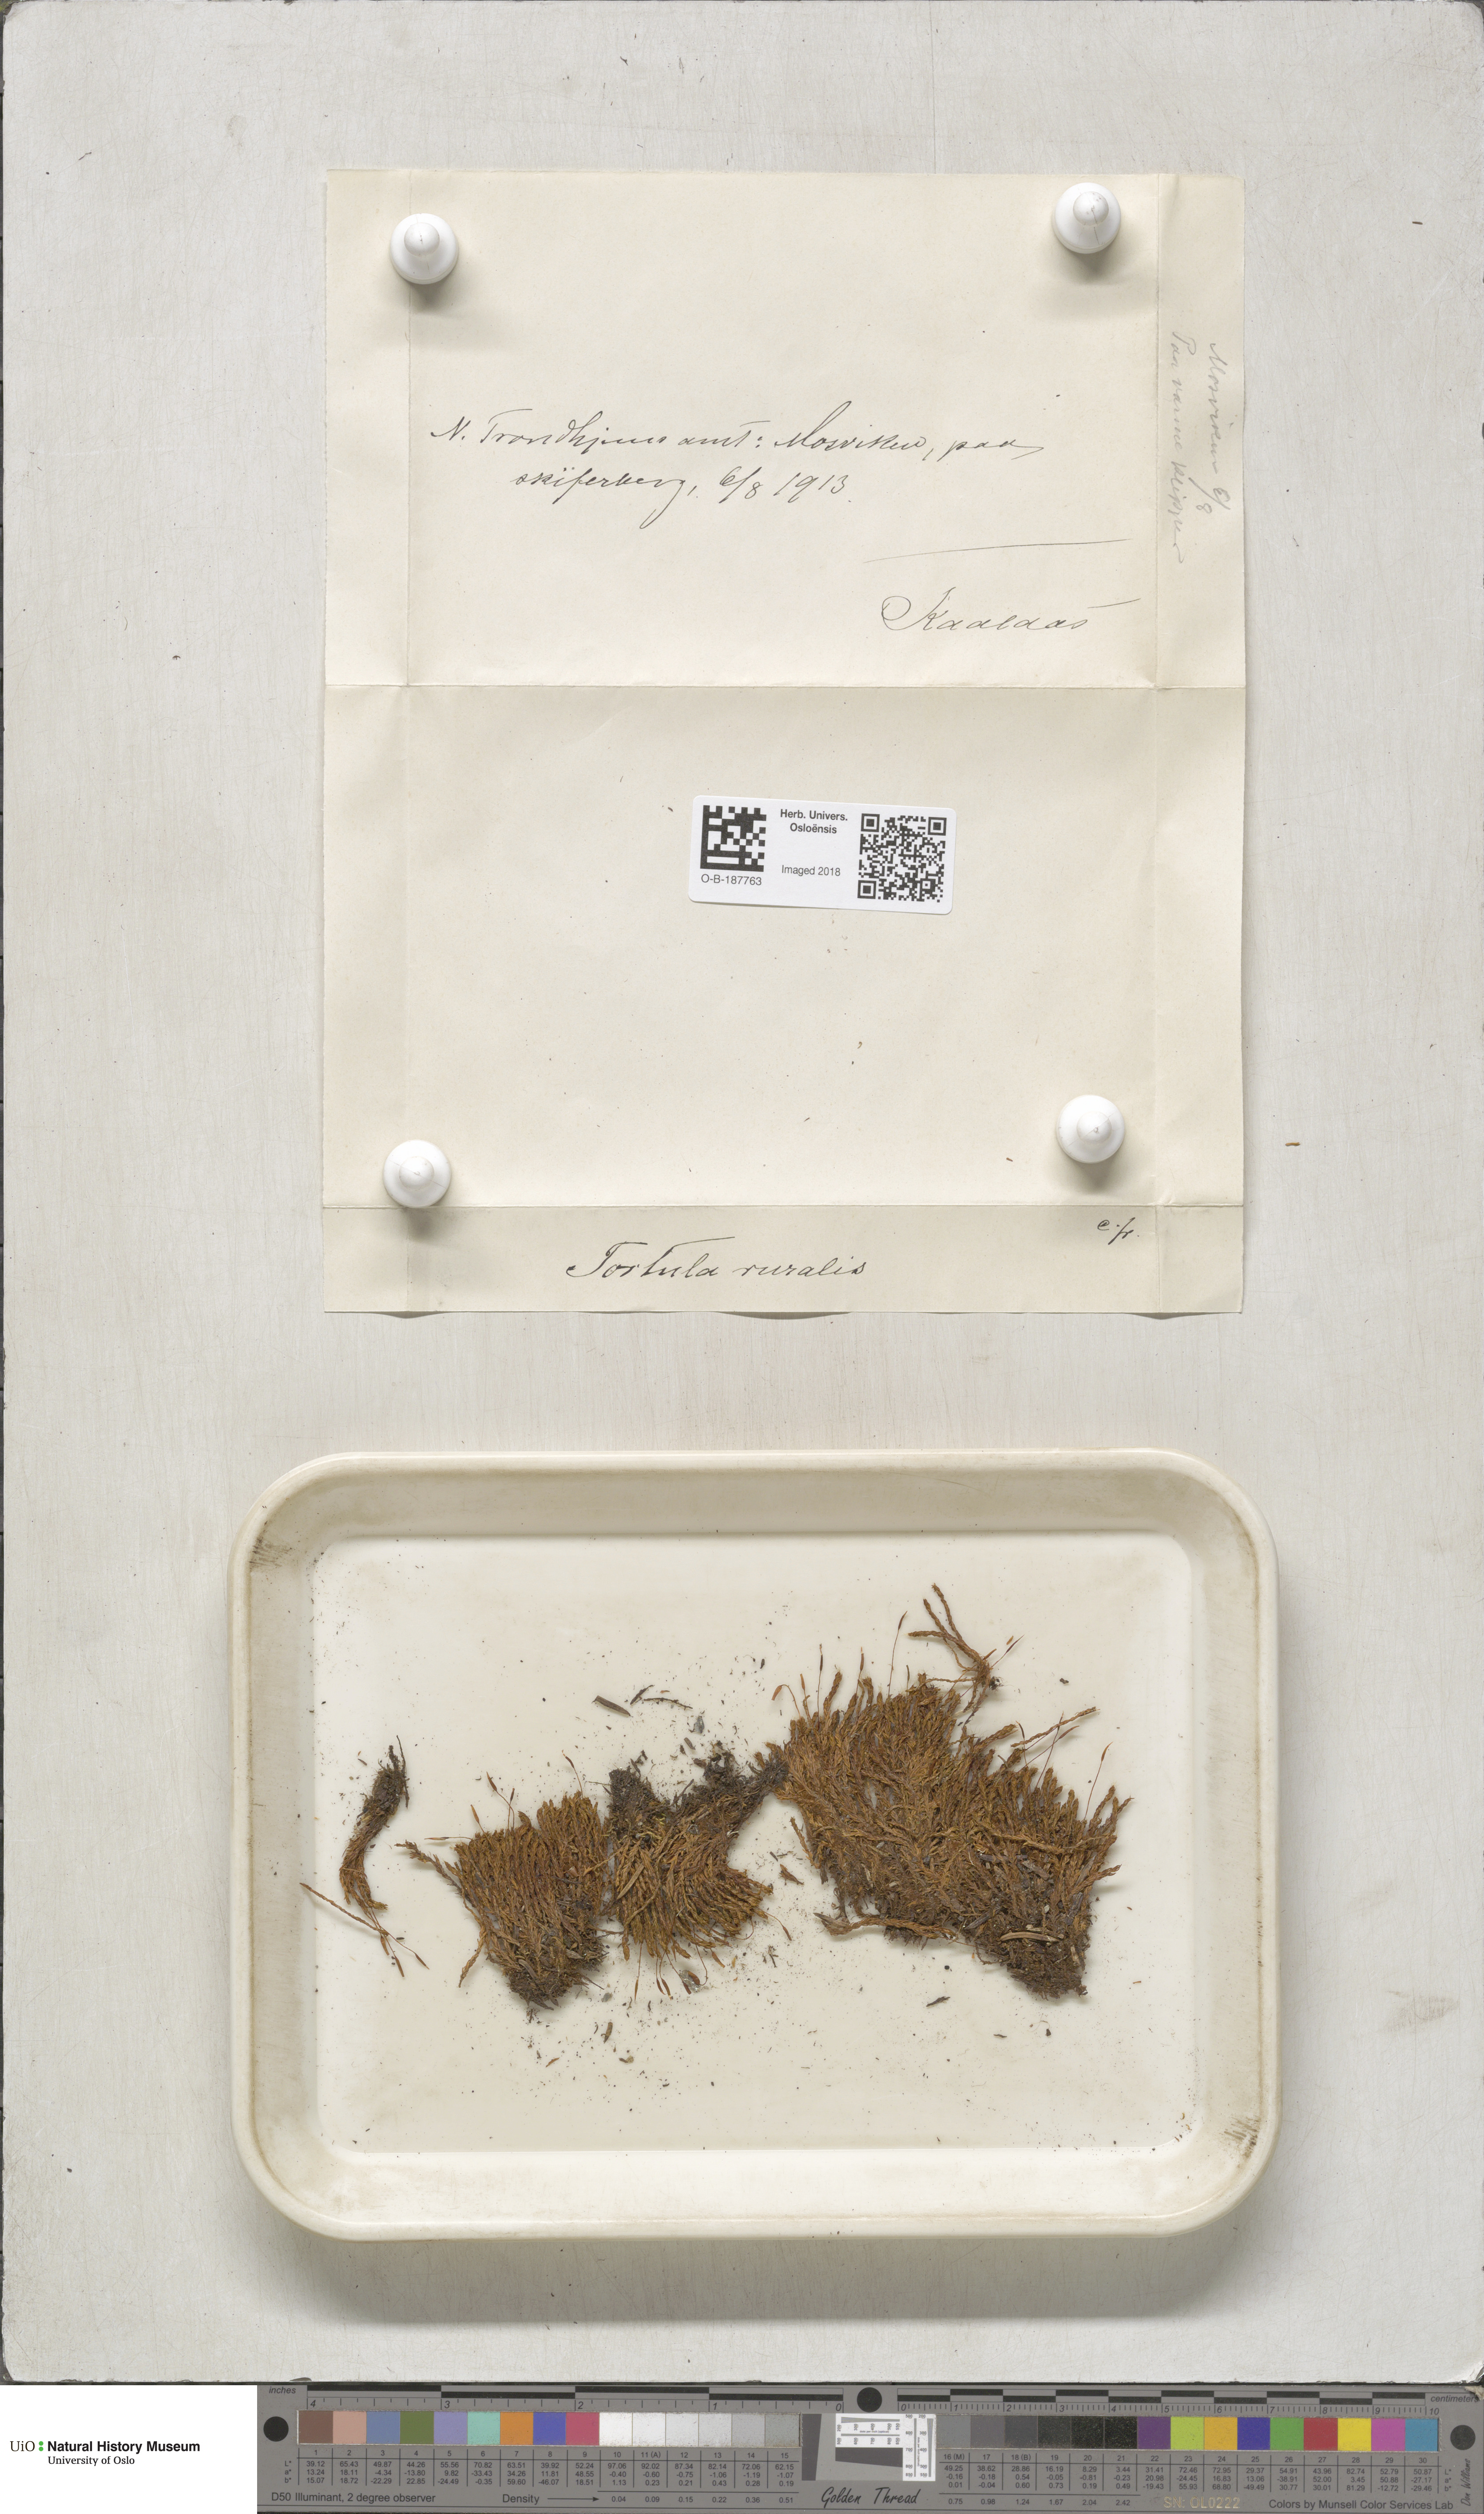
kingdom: Plantae
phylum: Bryophyta
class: Bryopsida
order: Pottiales
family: Pottiaceae
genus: Syntrichia
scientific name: Syntrichia ruralis
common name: Sidewalk screw moss
